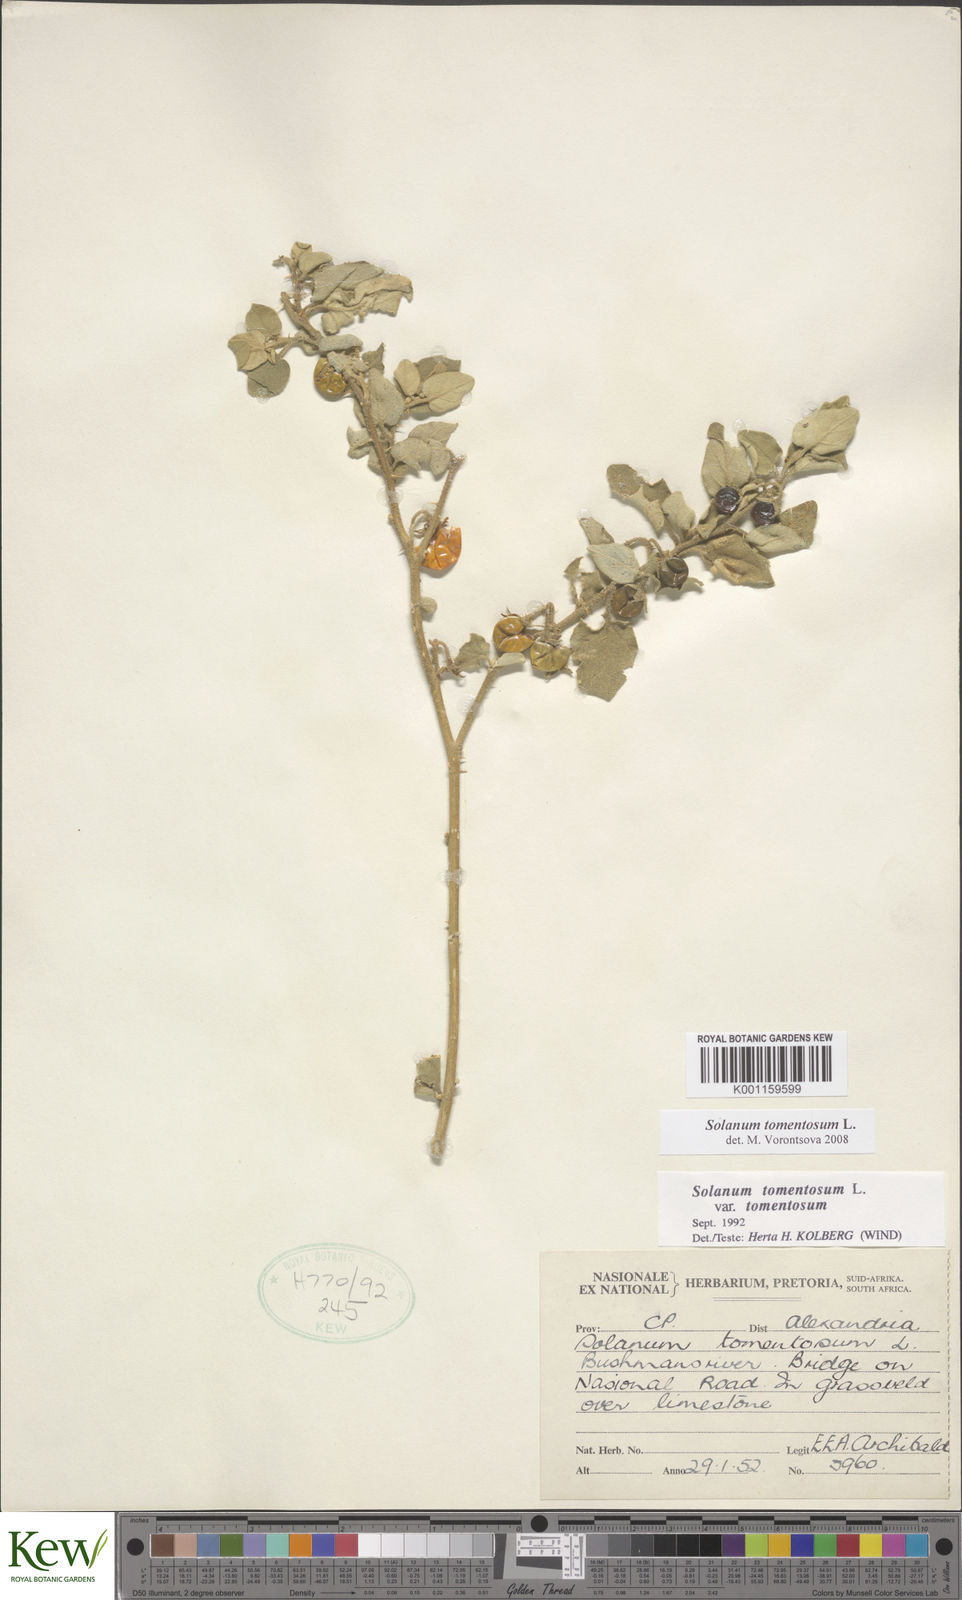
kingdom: Plantae
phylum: Tracheophyta
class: Magnoliopsida
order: Solanales
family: Solanaceae
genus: Solanum
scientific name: Solanum tomentosum
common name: Wild aubergine
